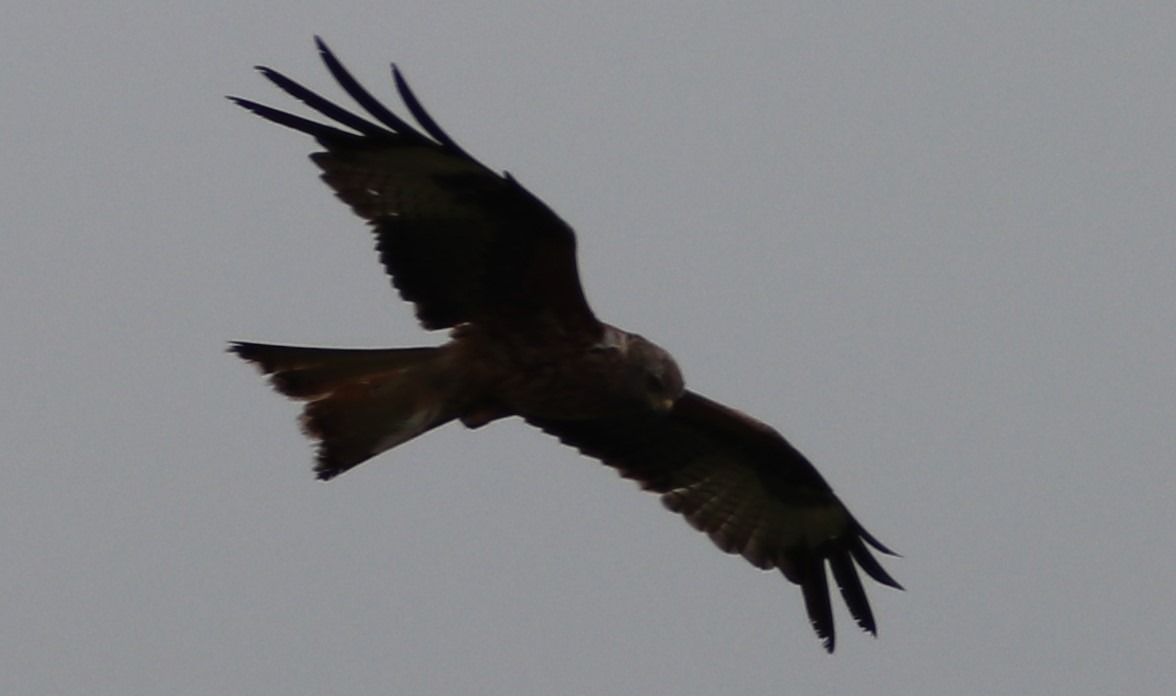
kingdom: Animalia
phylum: Chordata
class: Aves
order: Accipitriformes
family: Accipitridae
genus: Milvus
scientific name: Milvus milvus
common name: Rød glente
